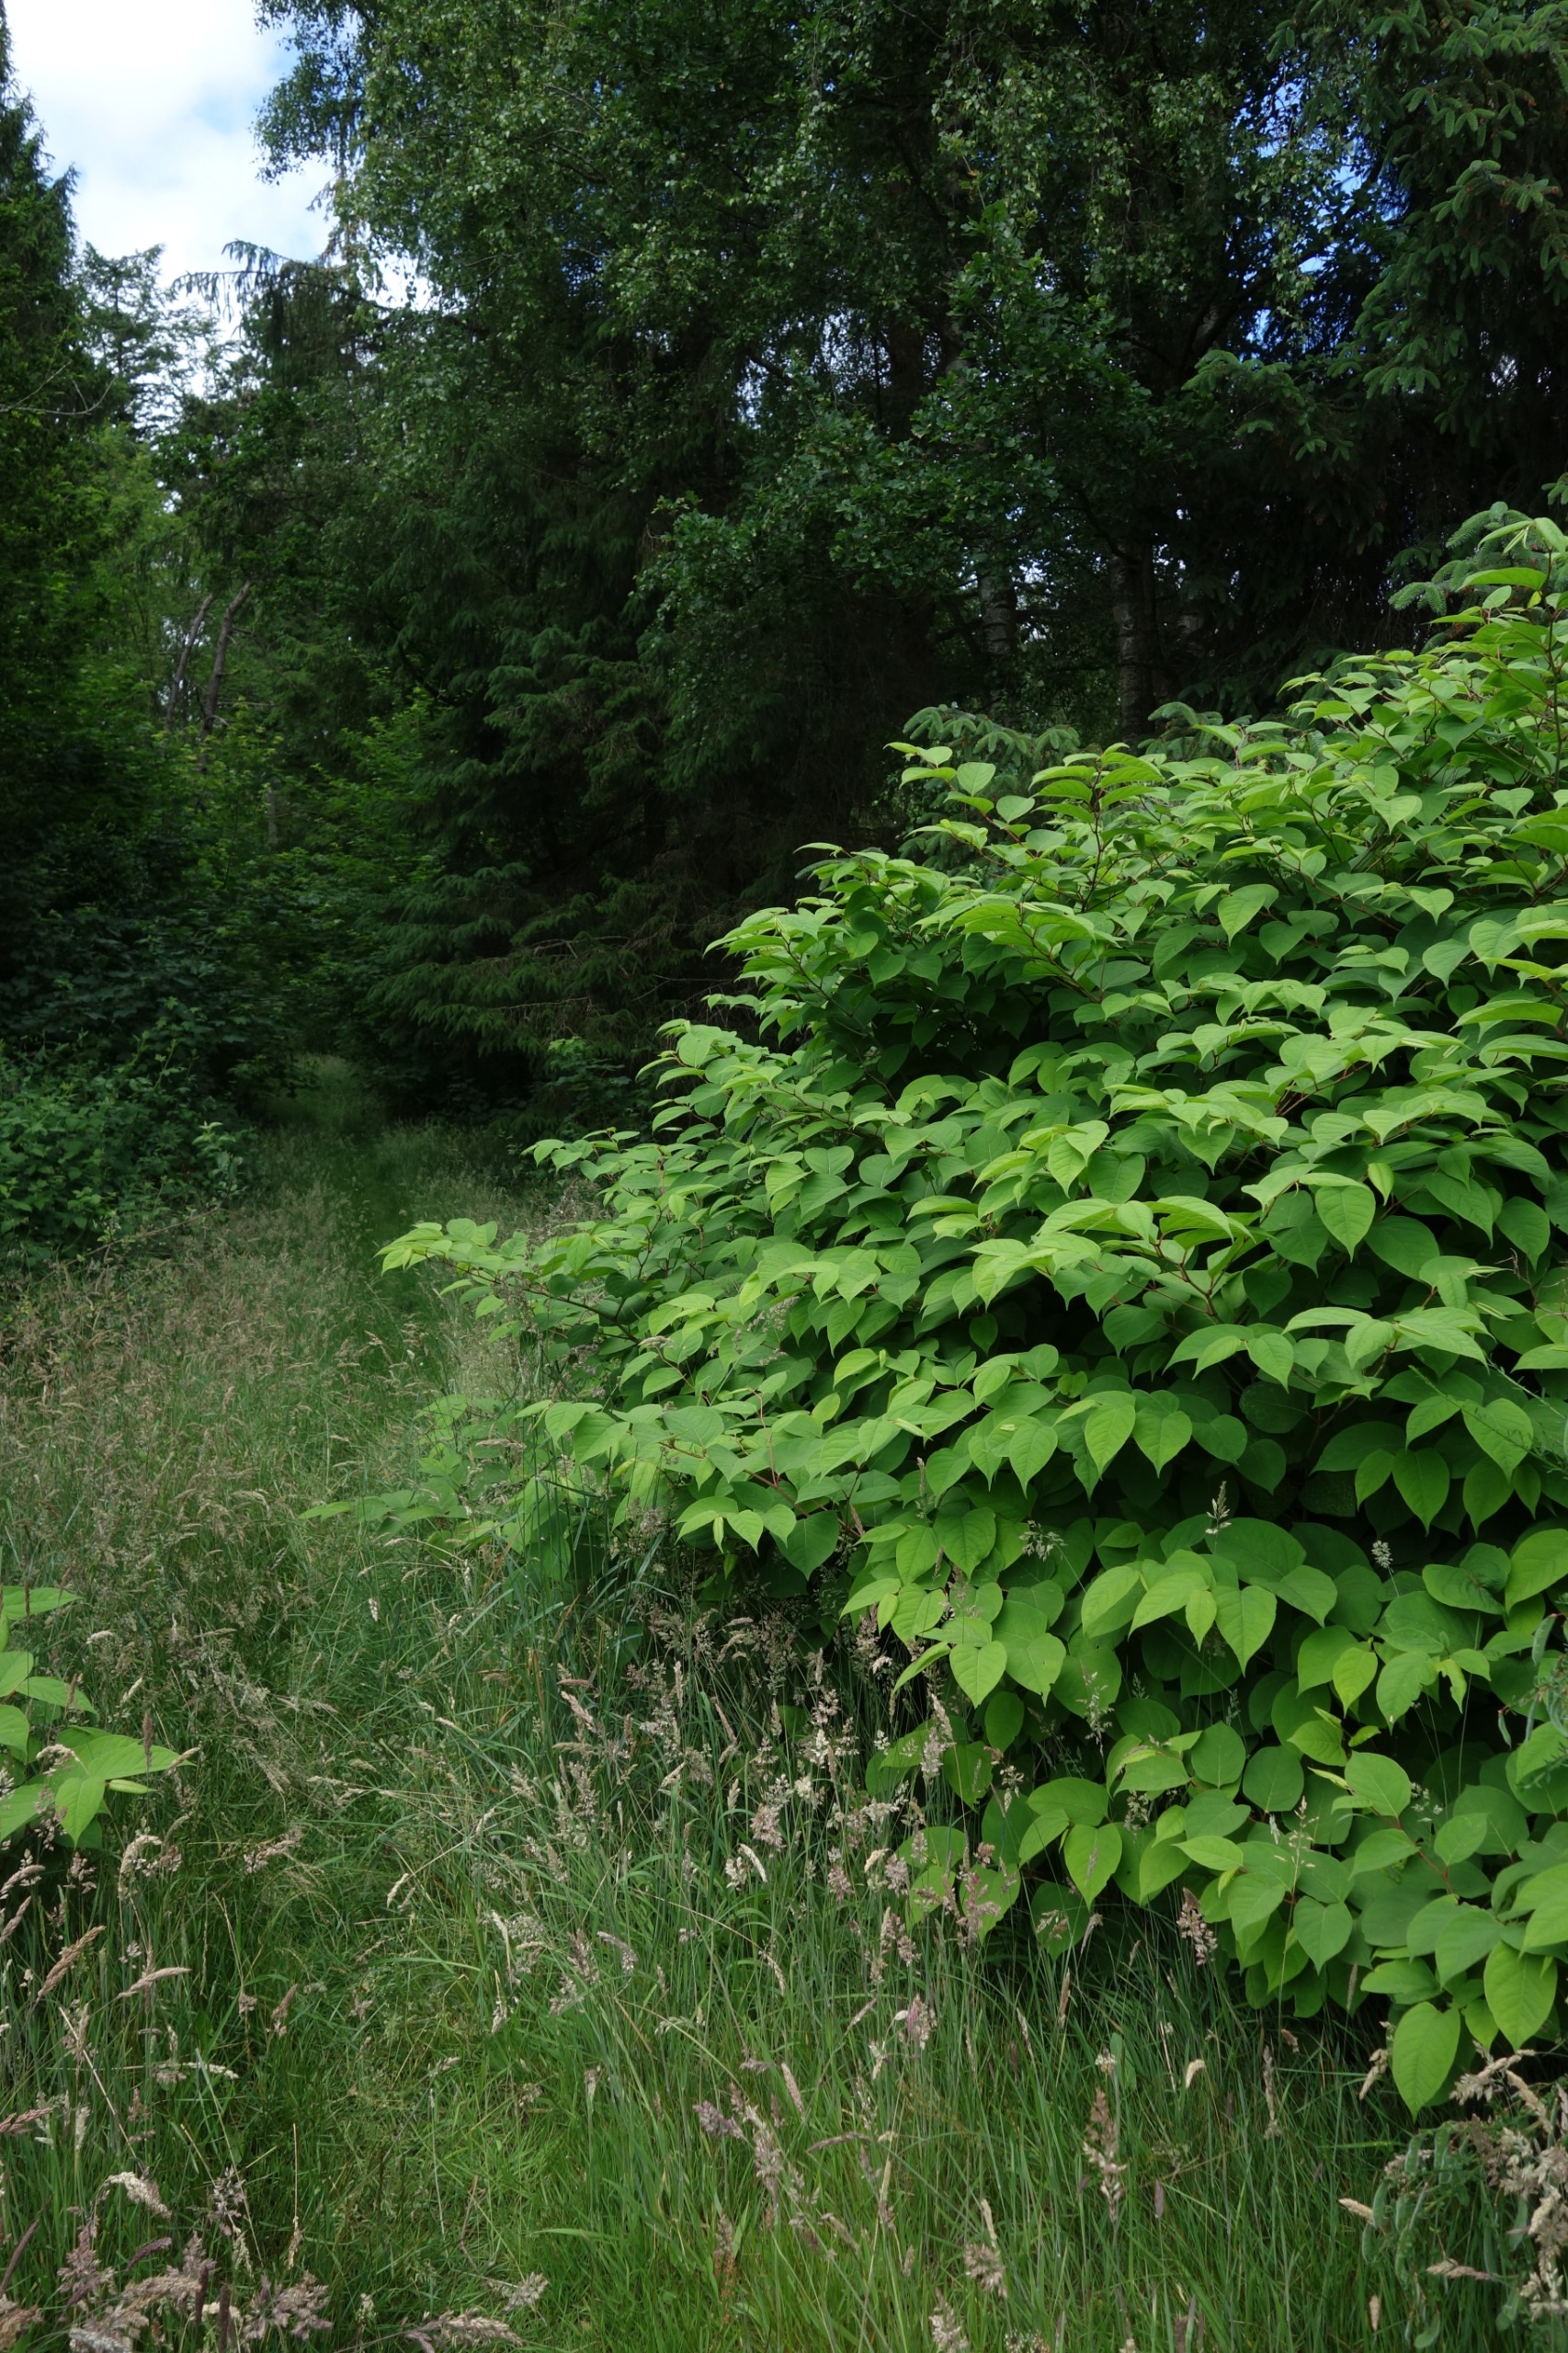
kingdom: Plantae
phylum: Tracheophyta
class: Magnoliopsida
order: Caryophyllales
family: Polygonaceae
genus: Reynoutria
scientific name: Reynoutria japonica
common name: Japan-pileurt
